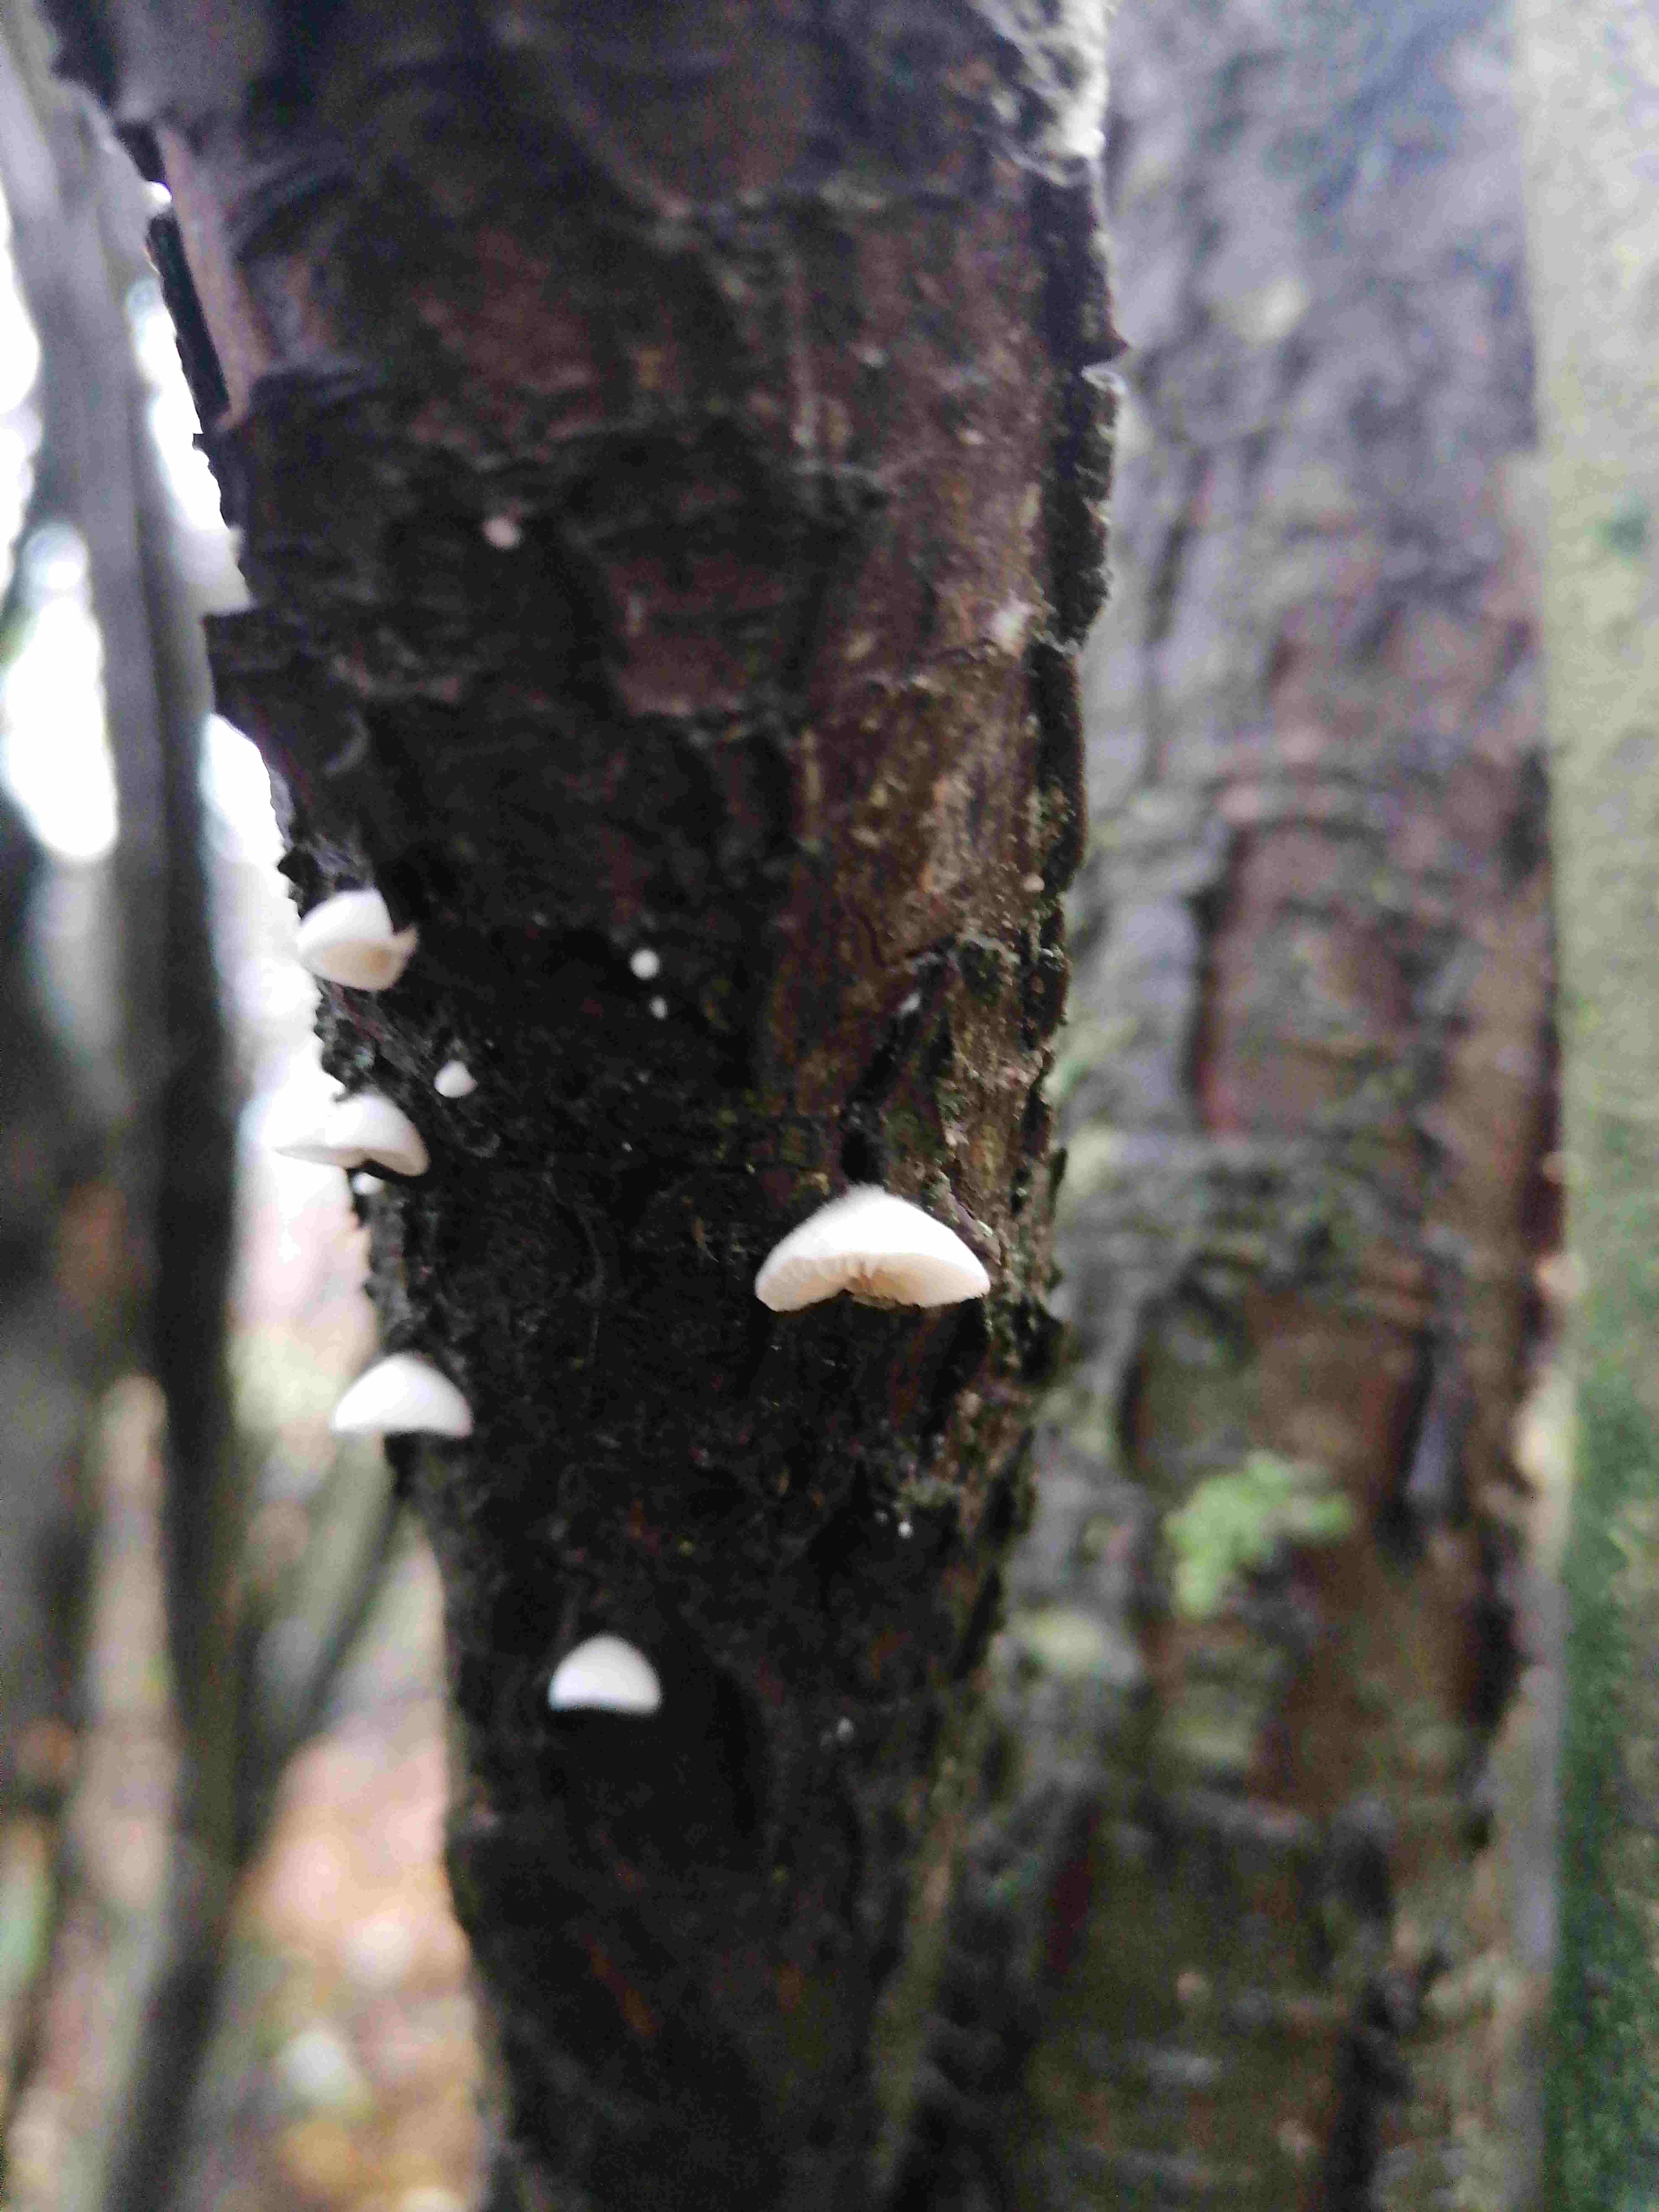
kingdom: Fungi
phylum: Basidiomycota
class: Agaricomycetes
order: Agaricales
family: Crepidotaceae
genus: Crepidotus
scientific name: Crepidotus
